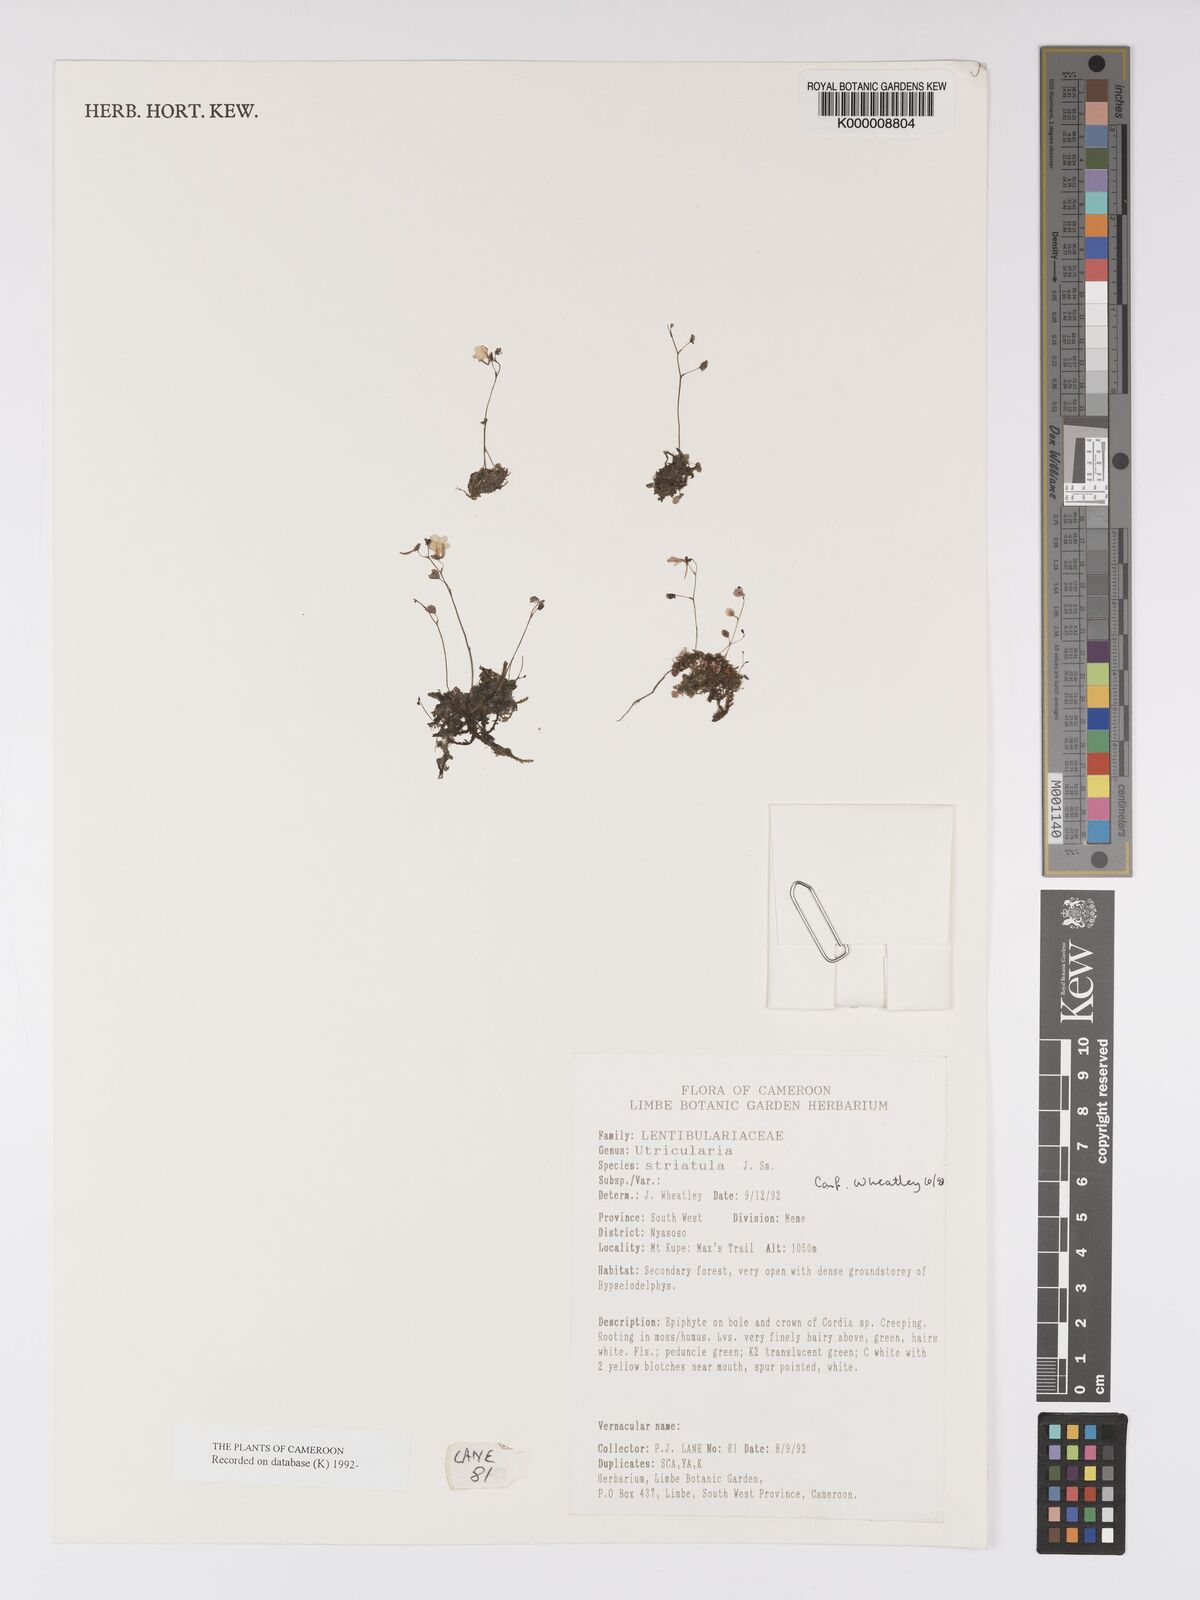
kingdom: Plantae
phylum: Tracheophyta
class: Magnoliopsida
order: Lamiales
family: Lentibulariaceae
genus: Utricularia
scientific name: Utricularia striatula
